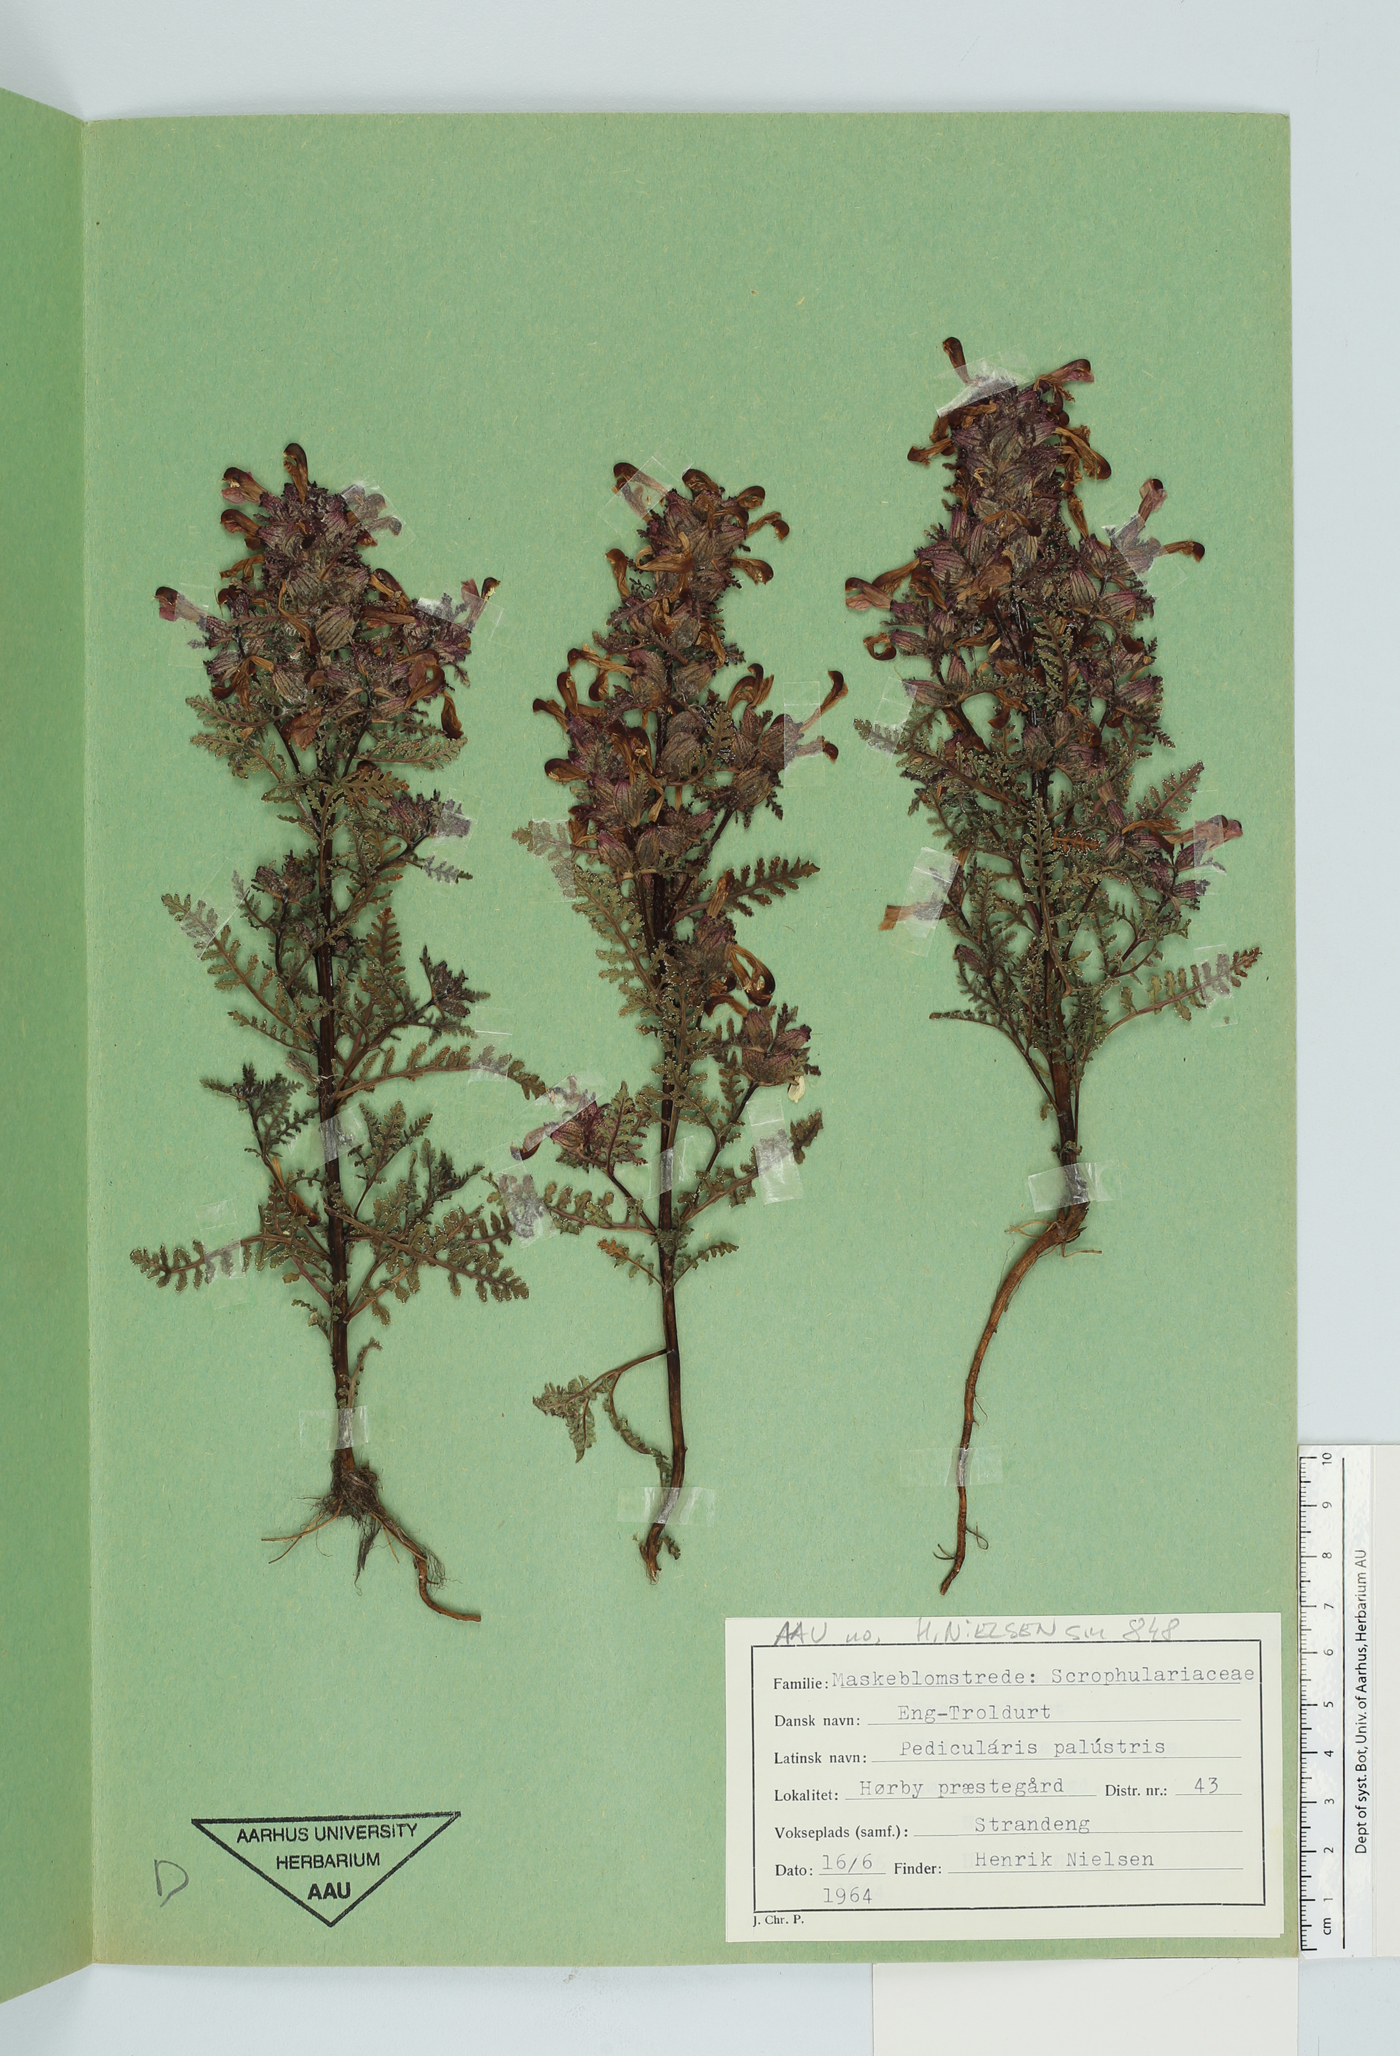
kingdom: Plantae
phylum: Tracheophyta
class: Magnoliopsida
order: Lamiales
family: Orobanchaceae
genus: Pedicularis
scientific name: Pedicularis palustris
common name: Marsh lousewort
